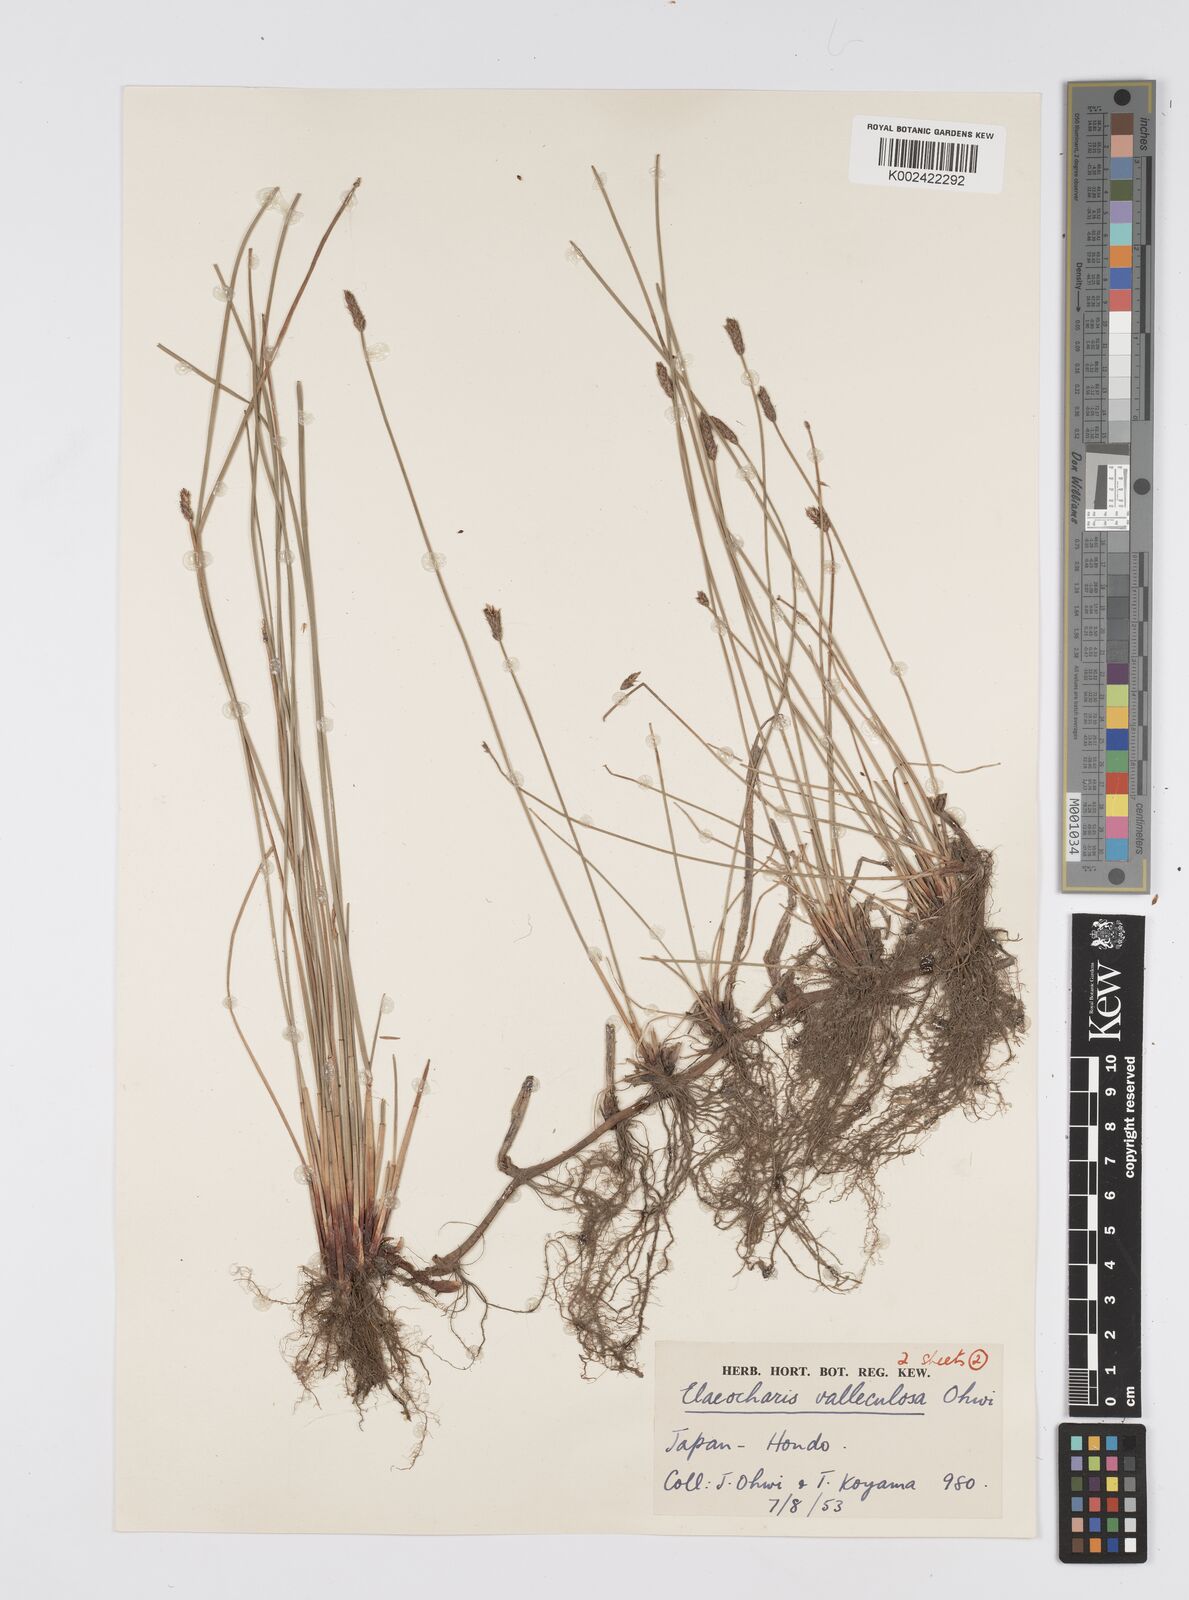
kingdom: Plantae
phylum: Tracheophyta
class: Liliopsida
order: Poales
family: Cyperaceae
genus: Eleocharis
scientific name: Eleocharis valleculosa
